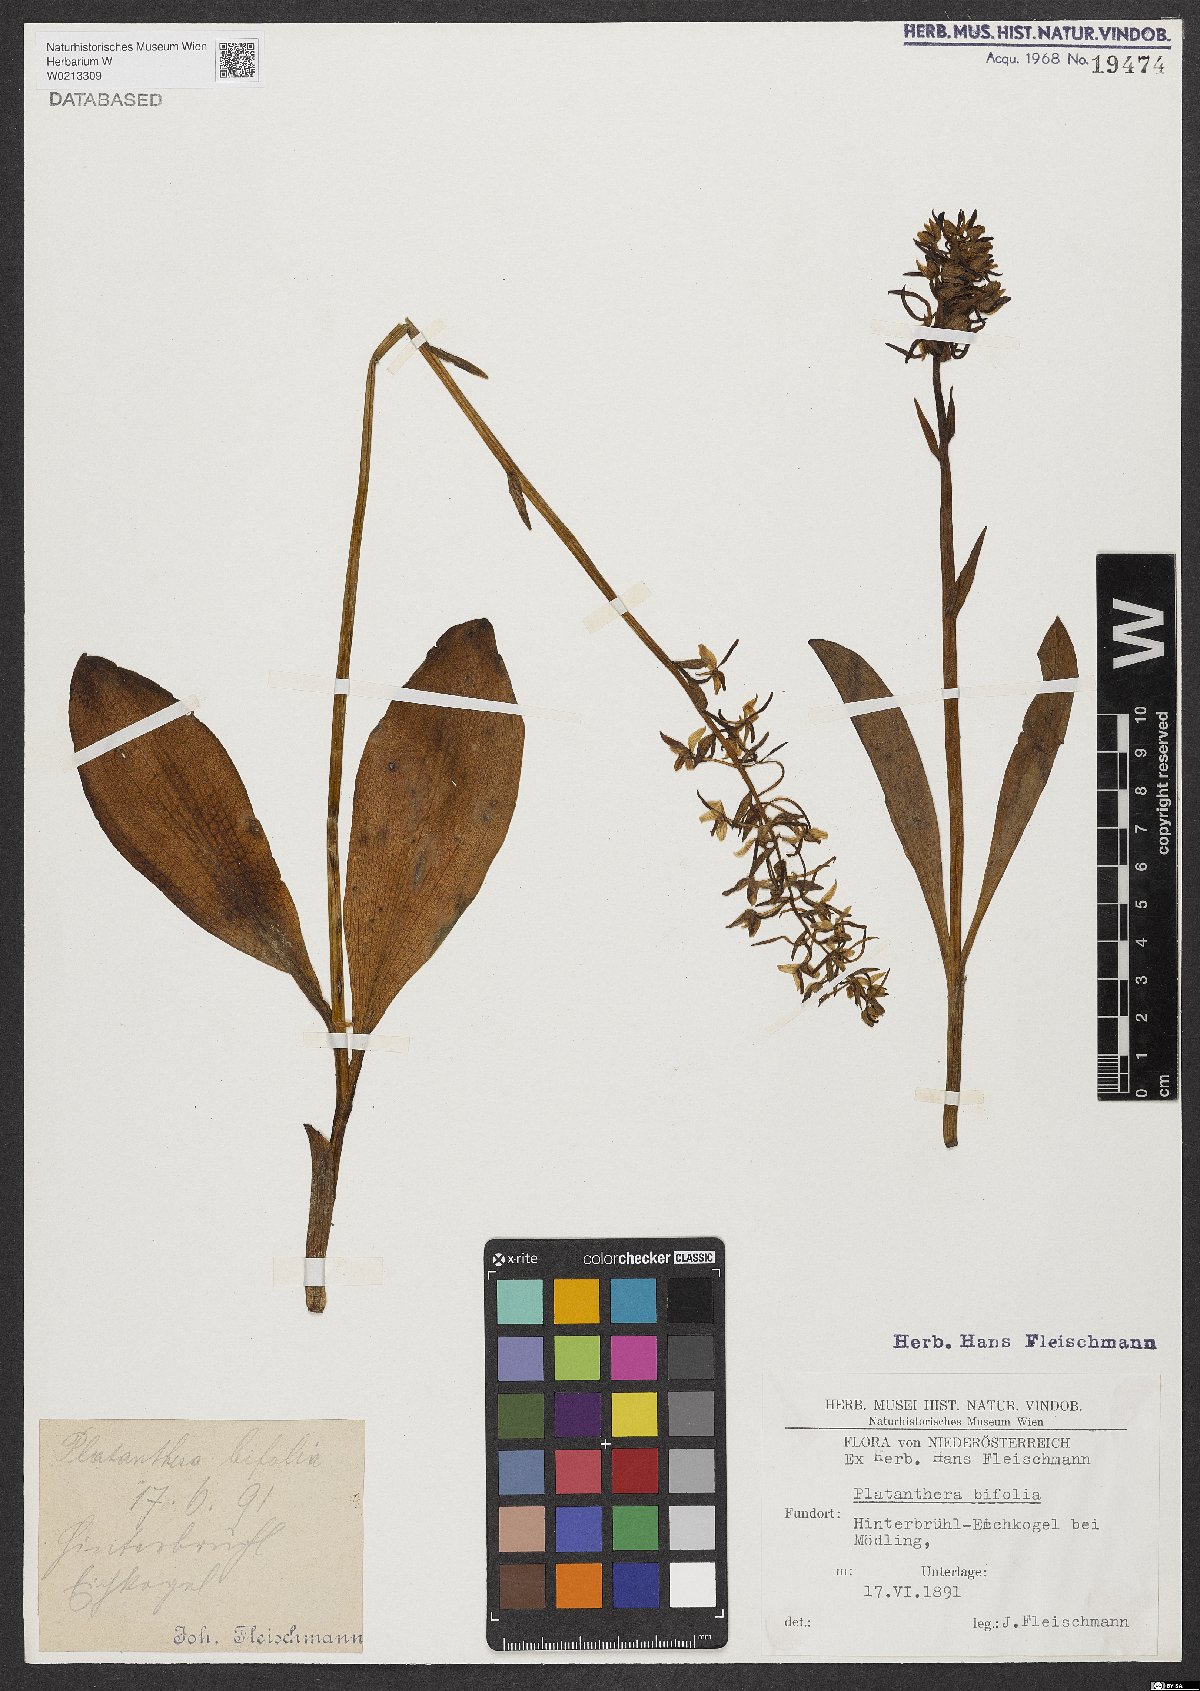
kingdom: Plantae
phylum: Tracheophyta
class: Liliopsida
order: Asparagales
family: Orchidaceae
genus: Platanthera
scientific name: Platanthera bifolia
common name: Lesser butterfly-orchid
